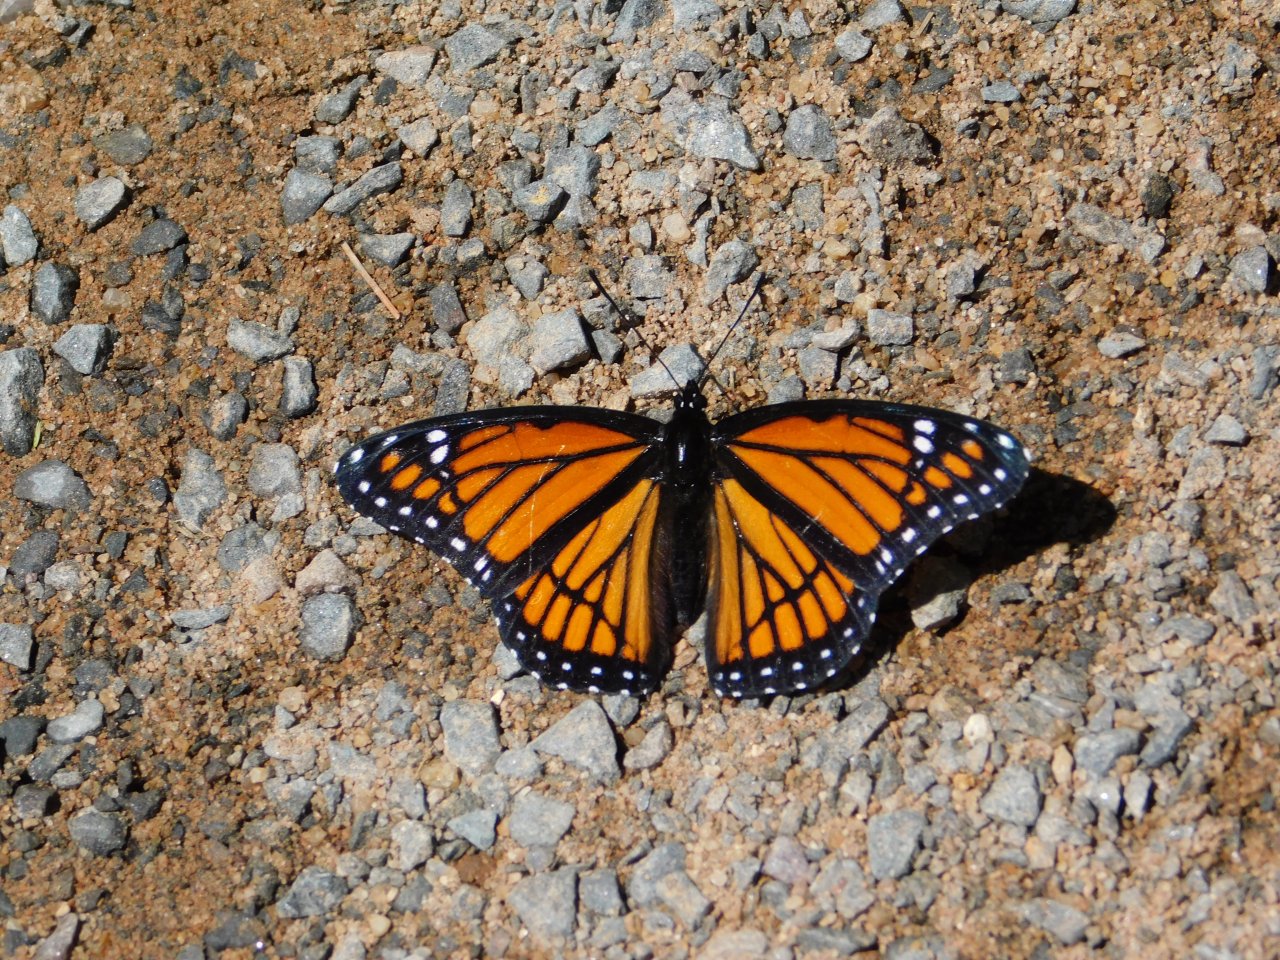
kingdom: Animalia
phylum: Arthropoda
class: Insecta
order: Lepidoptera
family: Nymphalidae
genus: Limenitis
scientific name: Limenitis archippus
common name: Viceroy
